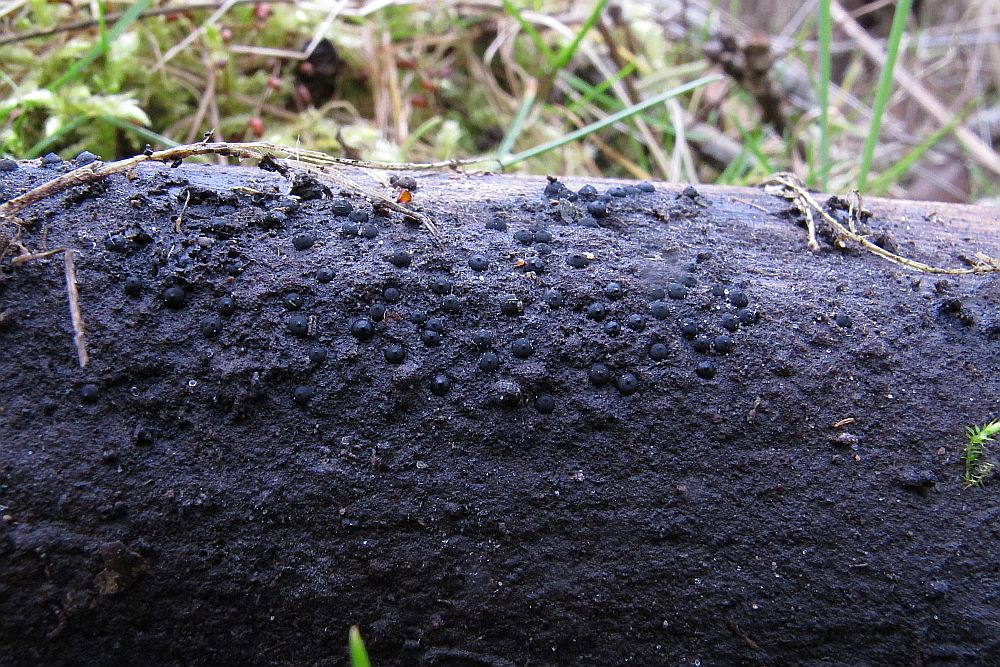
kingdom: Fungi
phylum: Ascomycota
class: Sordariomycetes
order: Xylariales
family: Xylariaceae
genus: Rosellinia
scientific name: Rosellinia corticium
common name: måtte-kulkaviar
